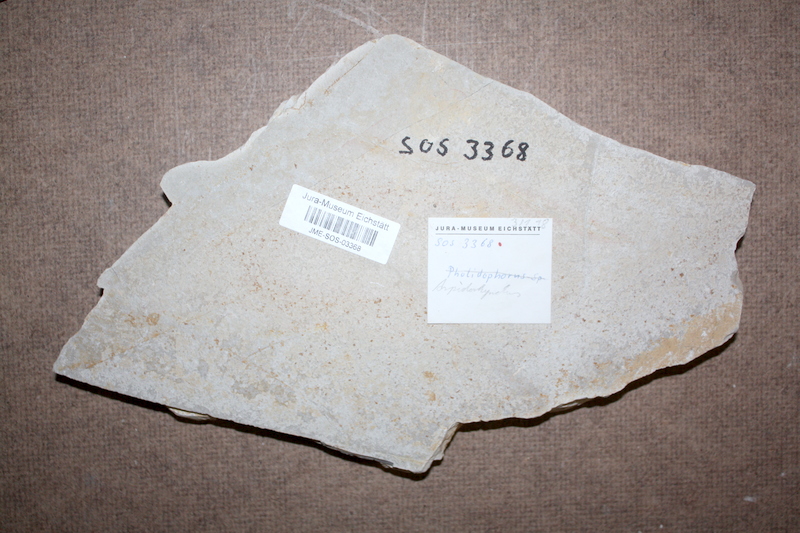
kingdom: Animalia
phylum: Chordata
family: Aspidorhynchidae
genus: Aspidorhynchus
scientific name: Aspidorhynchus
